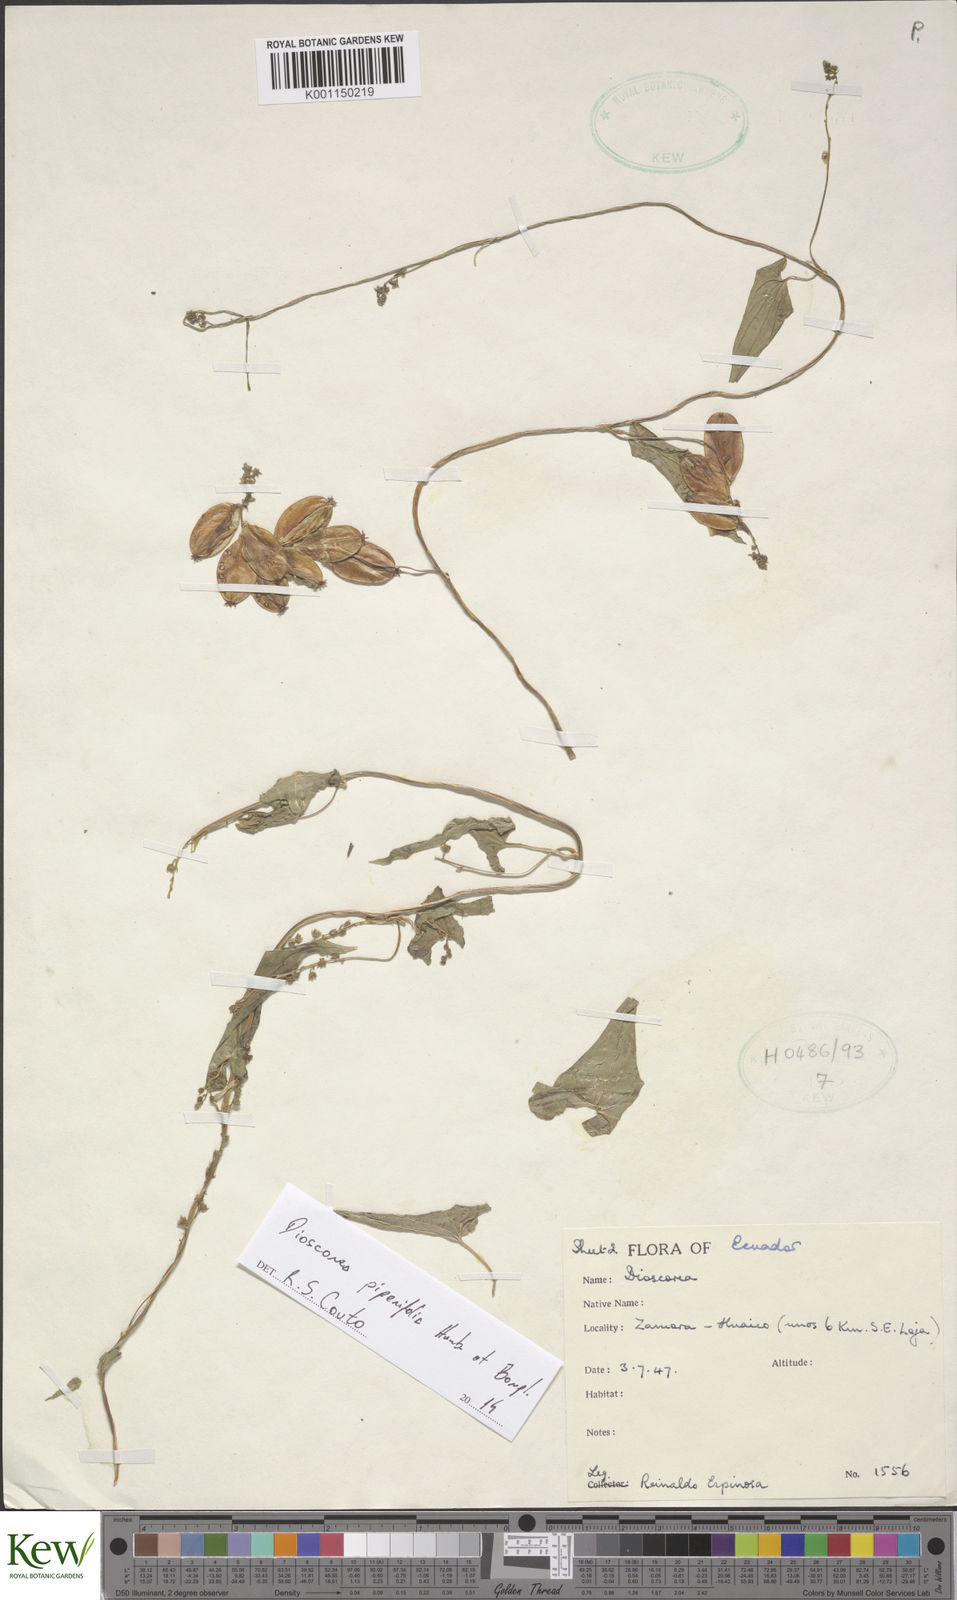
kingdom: Plantae
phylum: Tracheophyta
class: Liliopsida
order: Dioscoreales
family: Dioscoreaceae
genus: Dioscorea
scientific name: Dioscorea
